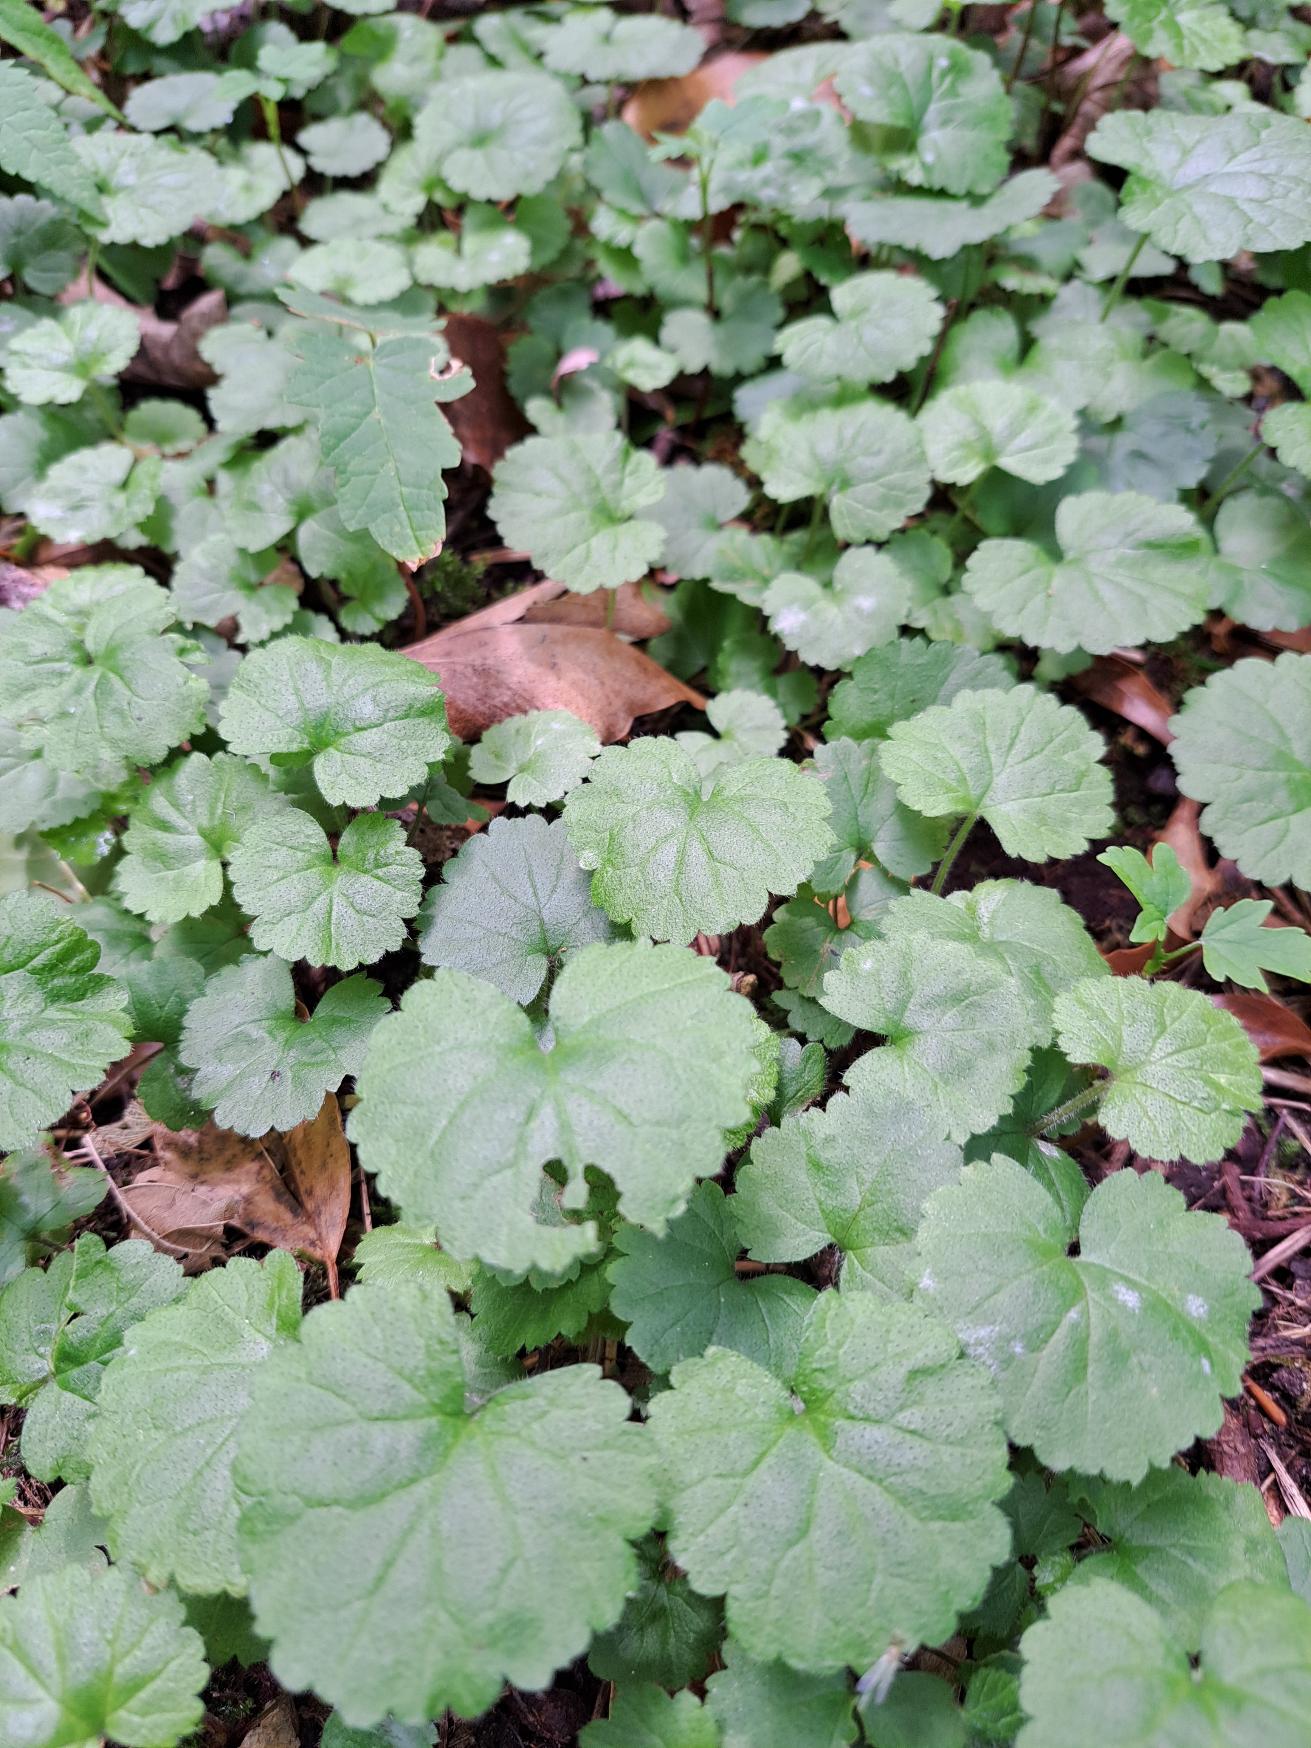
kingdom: Plantae
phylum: Tracheophyta
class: Magnoliopsida
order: Lamiales
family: Lamiaceae
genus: Glechoma
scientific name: Glechoma hederacea
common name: Korsknap
